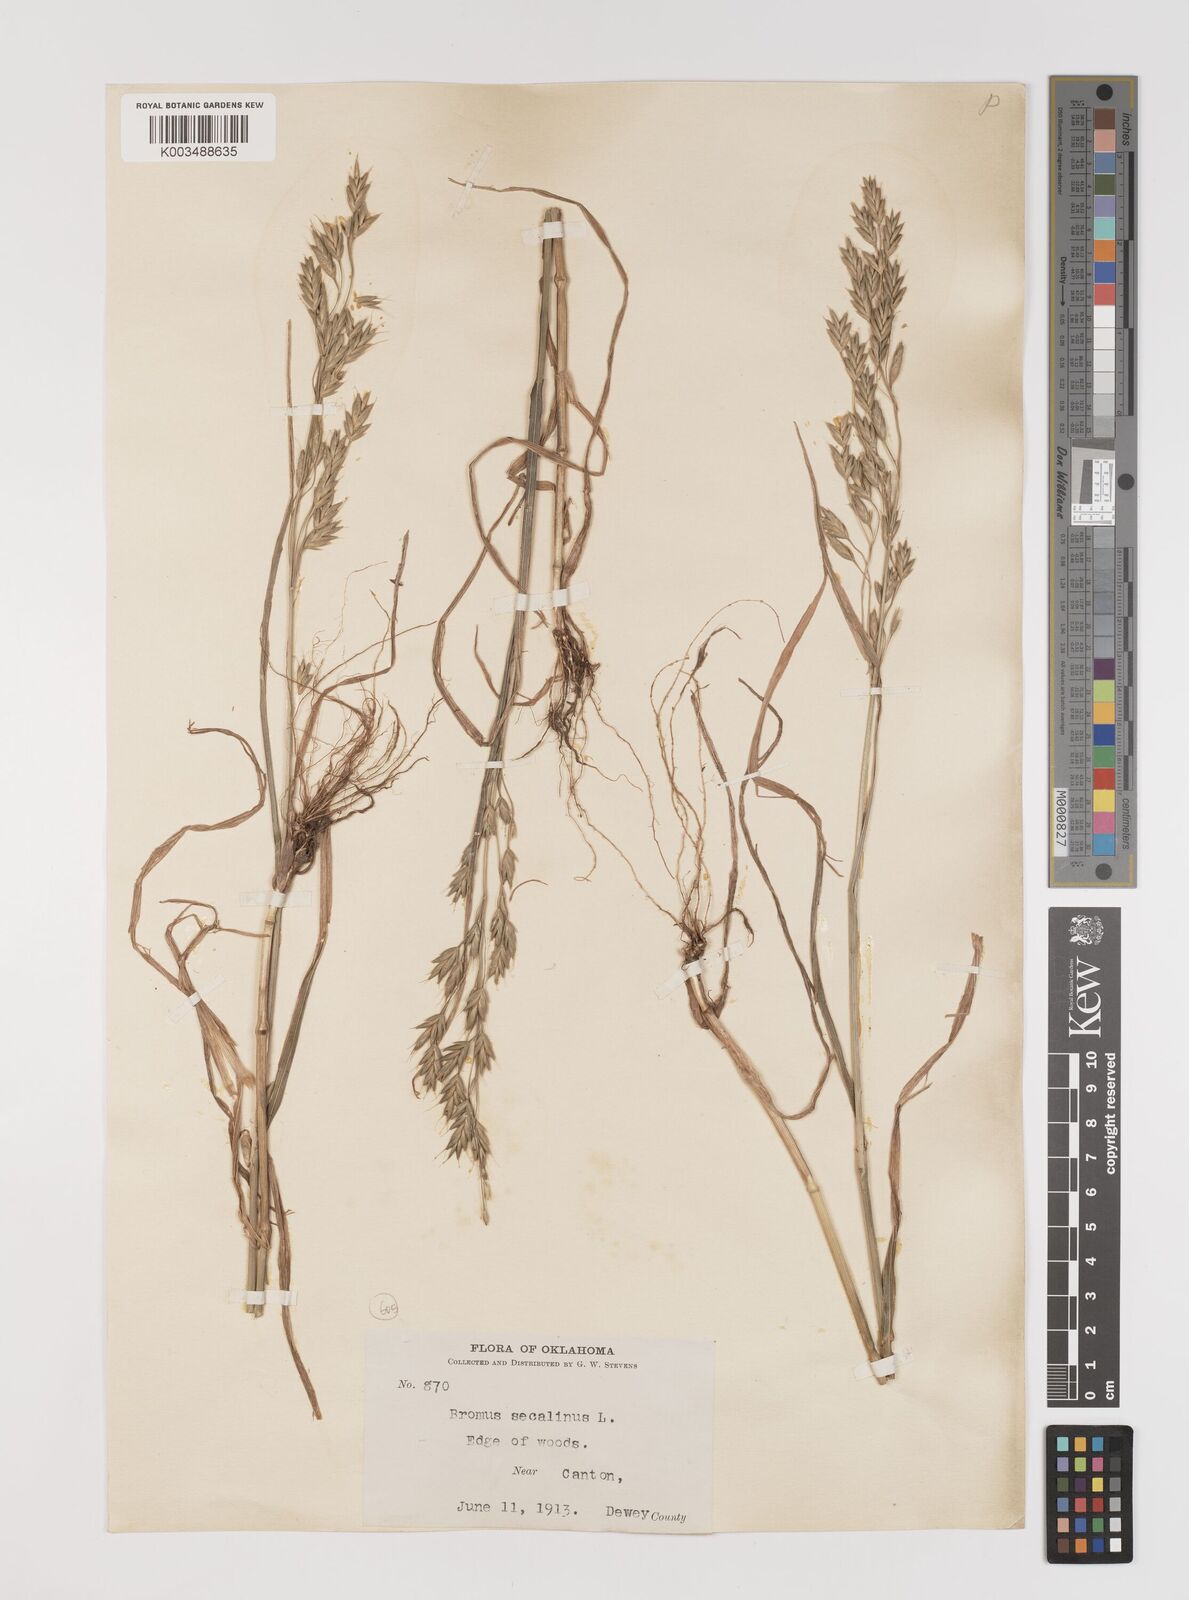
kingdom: Plantae
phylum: Tracheophyta
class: Liliopsida
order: Poales
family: Poaceae
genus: Bromus
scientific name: Bromus secalinus
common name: Rye brome
